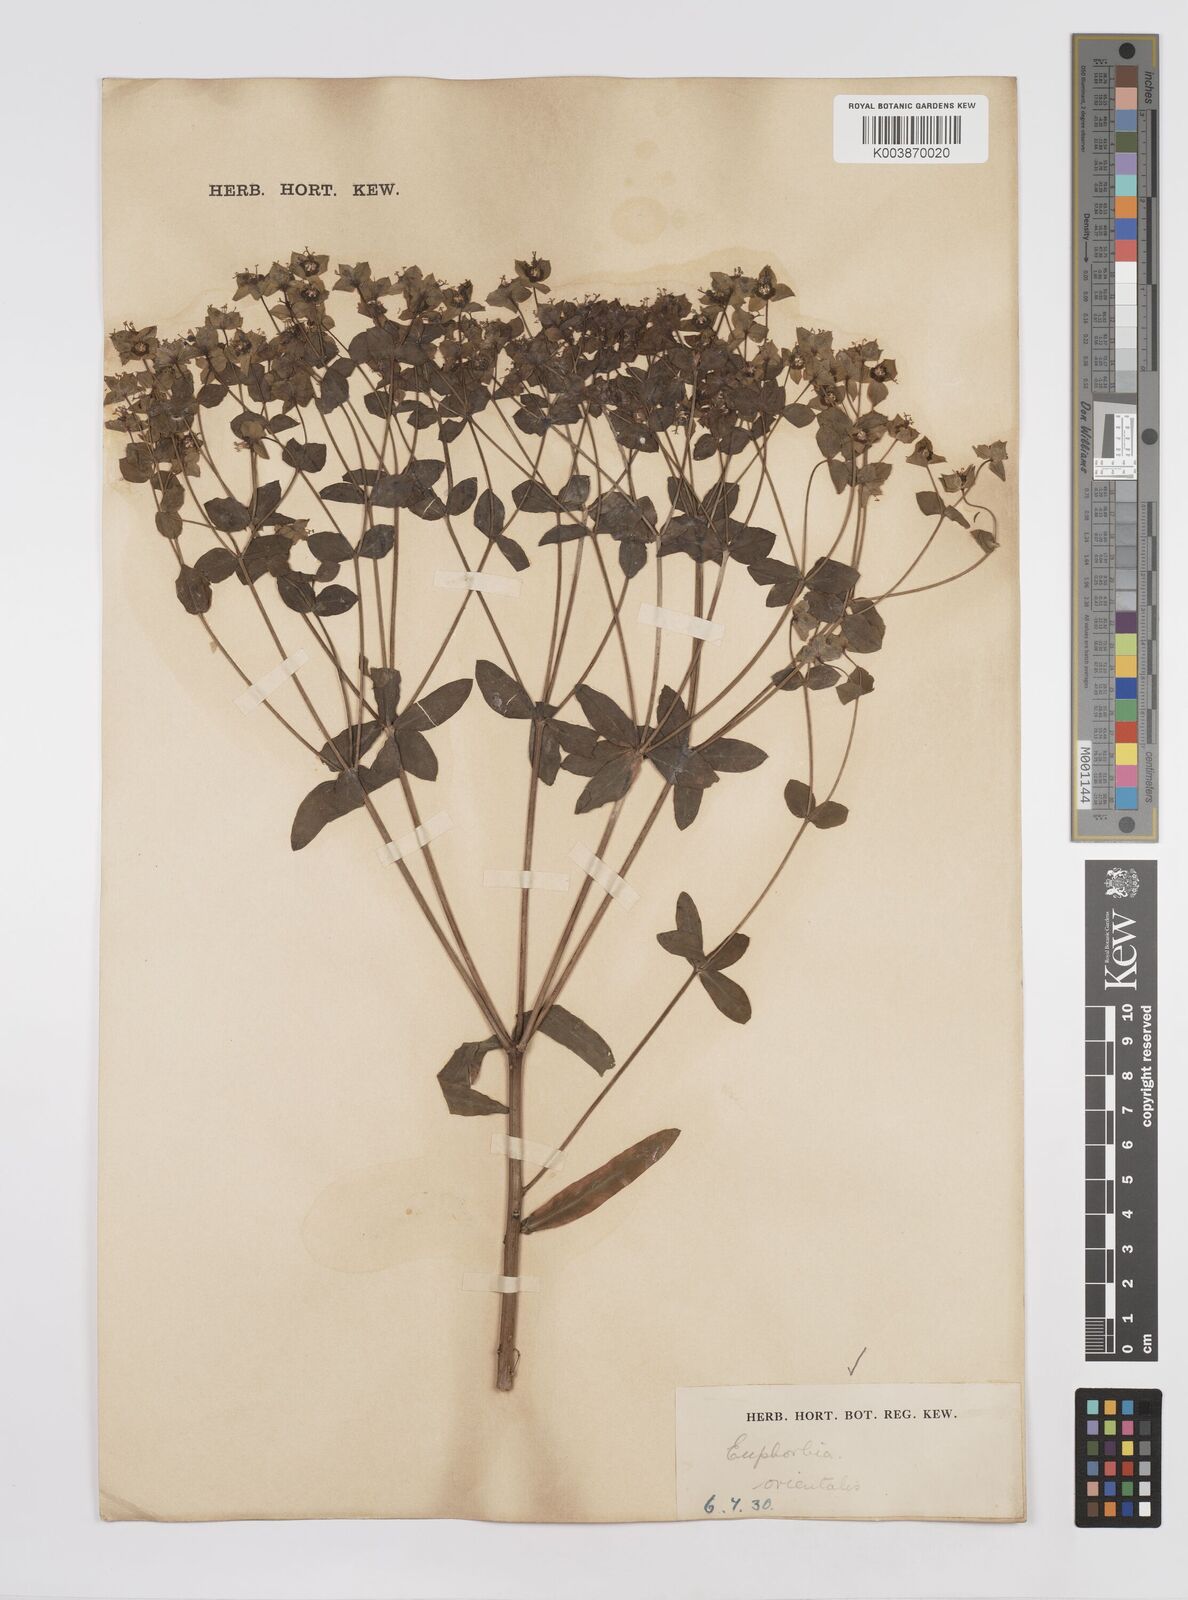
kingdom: Plantae
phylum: Tracheophyta
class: Magnoliopsida
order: Malpighiales
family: Euphorbiaceae
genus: Euphorbia
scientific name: Euphorbia orientalis
